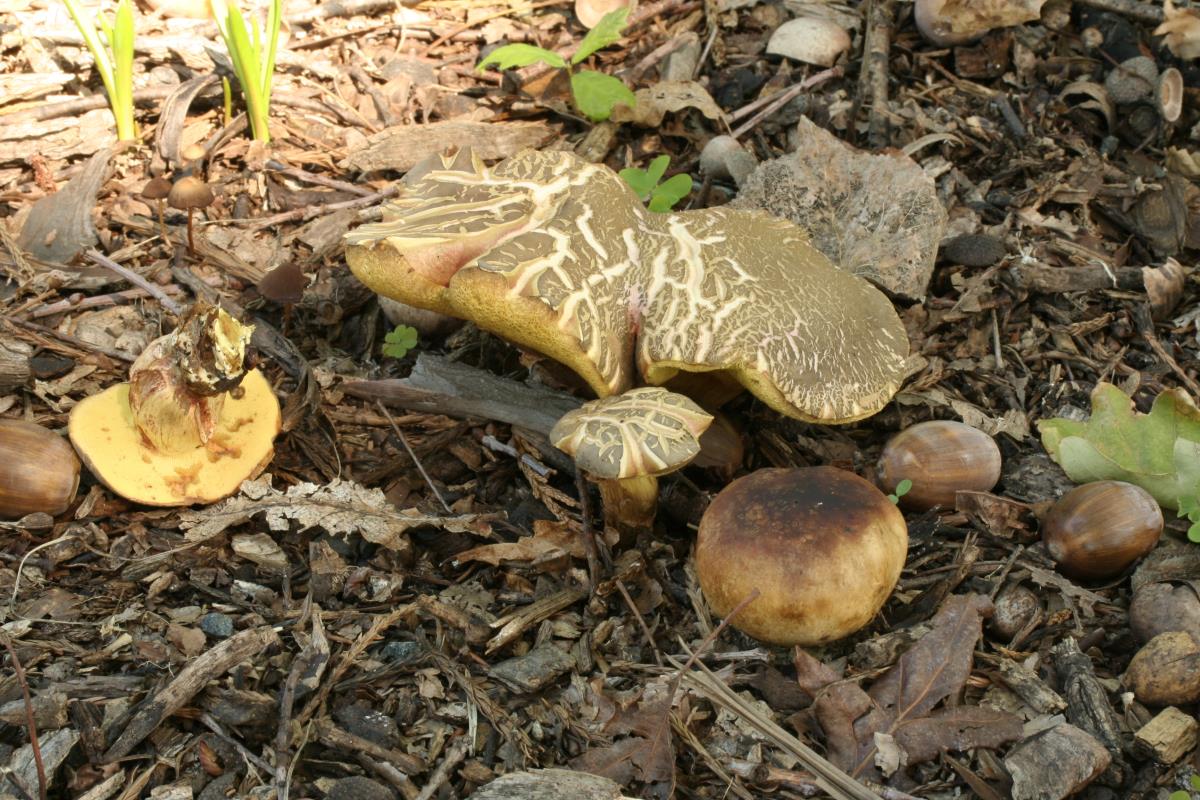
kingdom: Fungi
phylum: Basidiomycota
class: Agaricomycetes
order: Boletales
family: Boletaceae
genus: Xerocomellus
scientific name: Xerocomellus cisalpinus
